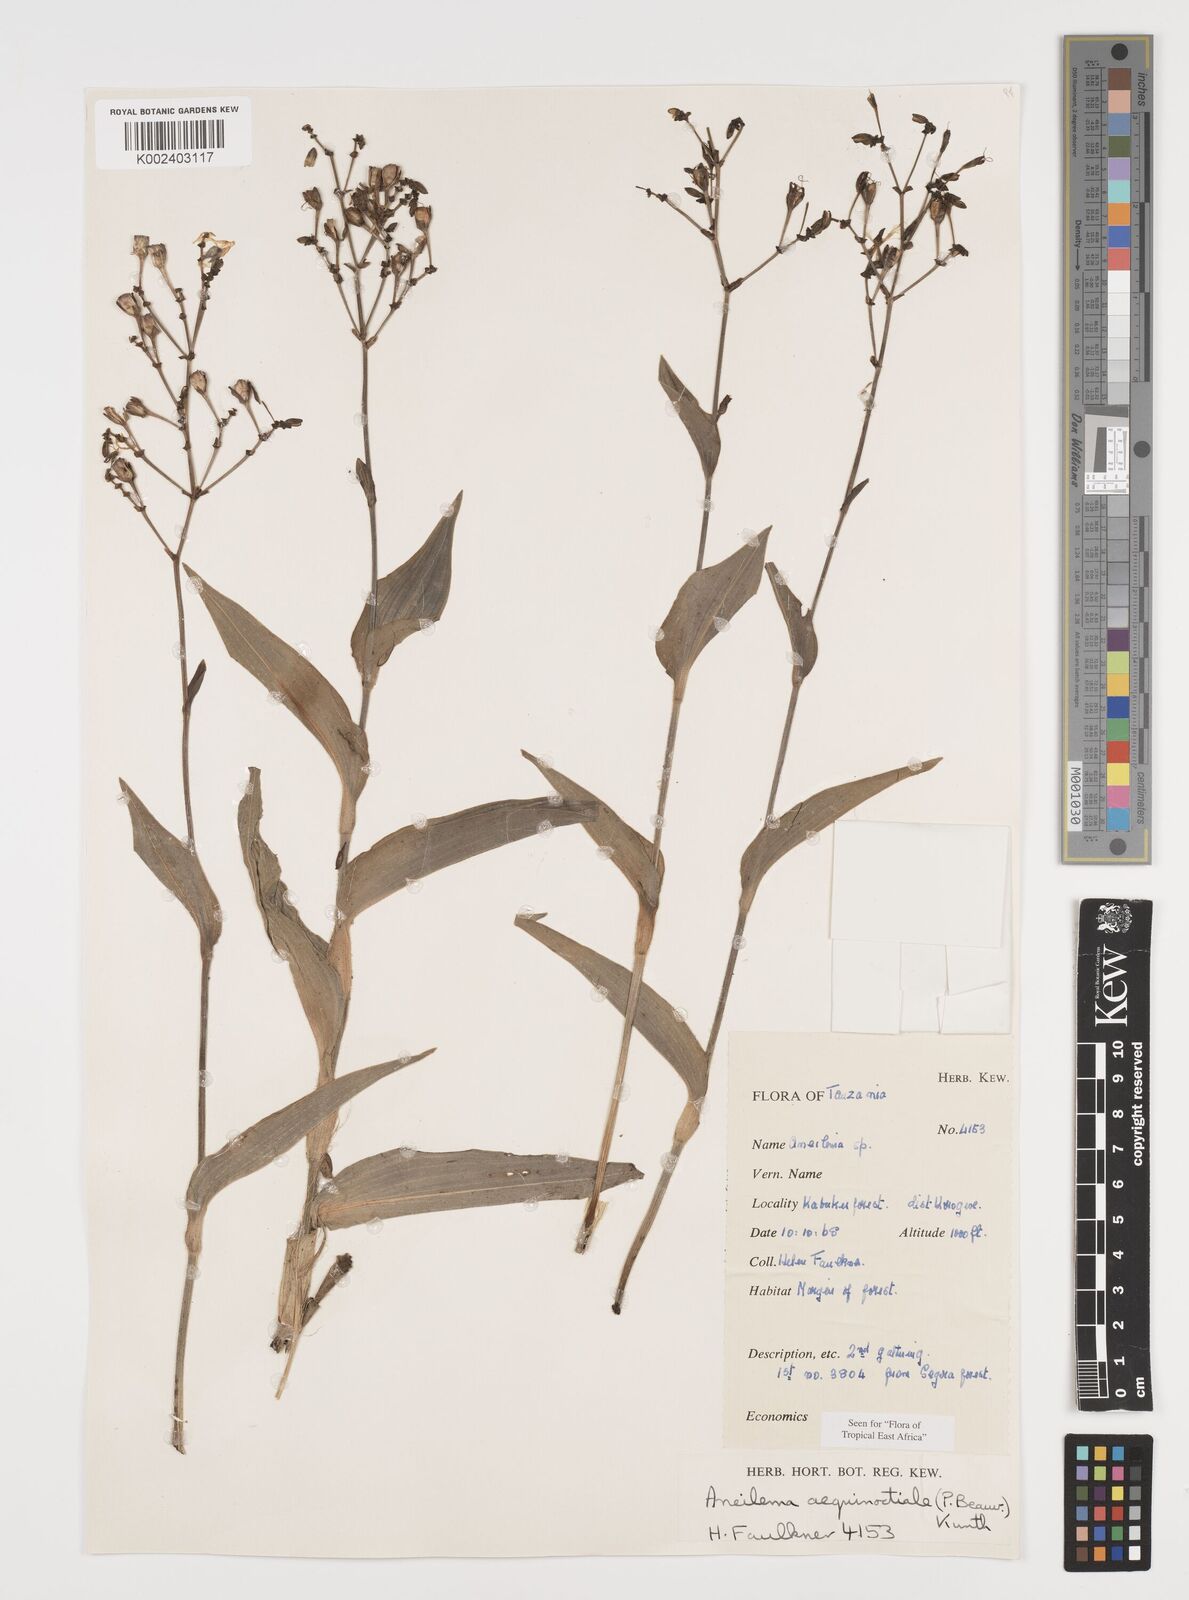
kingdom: Plantae
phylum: Tracheophyta
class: Liliopsida
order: Commelinales
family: Commelinaceae
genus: Aneilema
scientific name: Aneilema aequinoctiale
